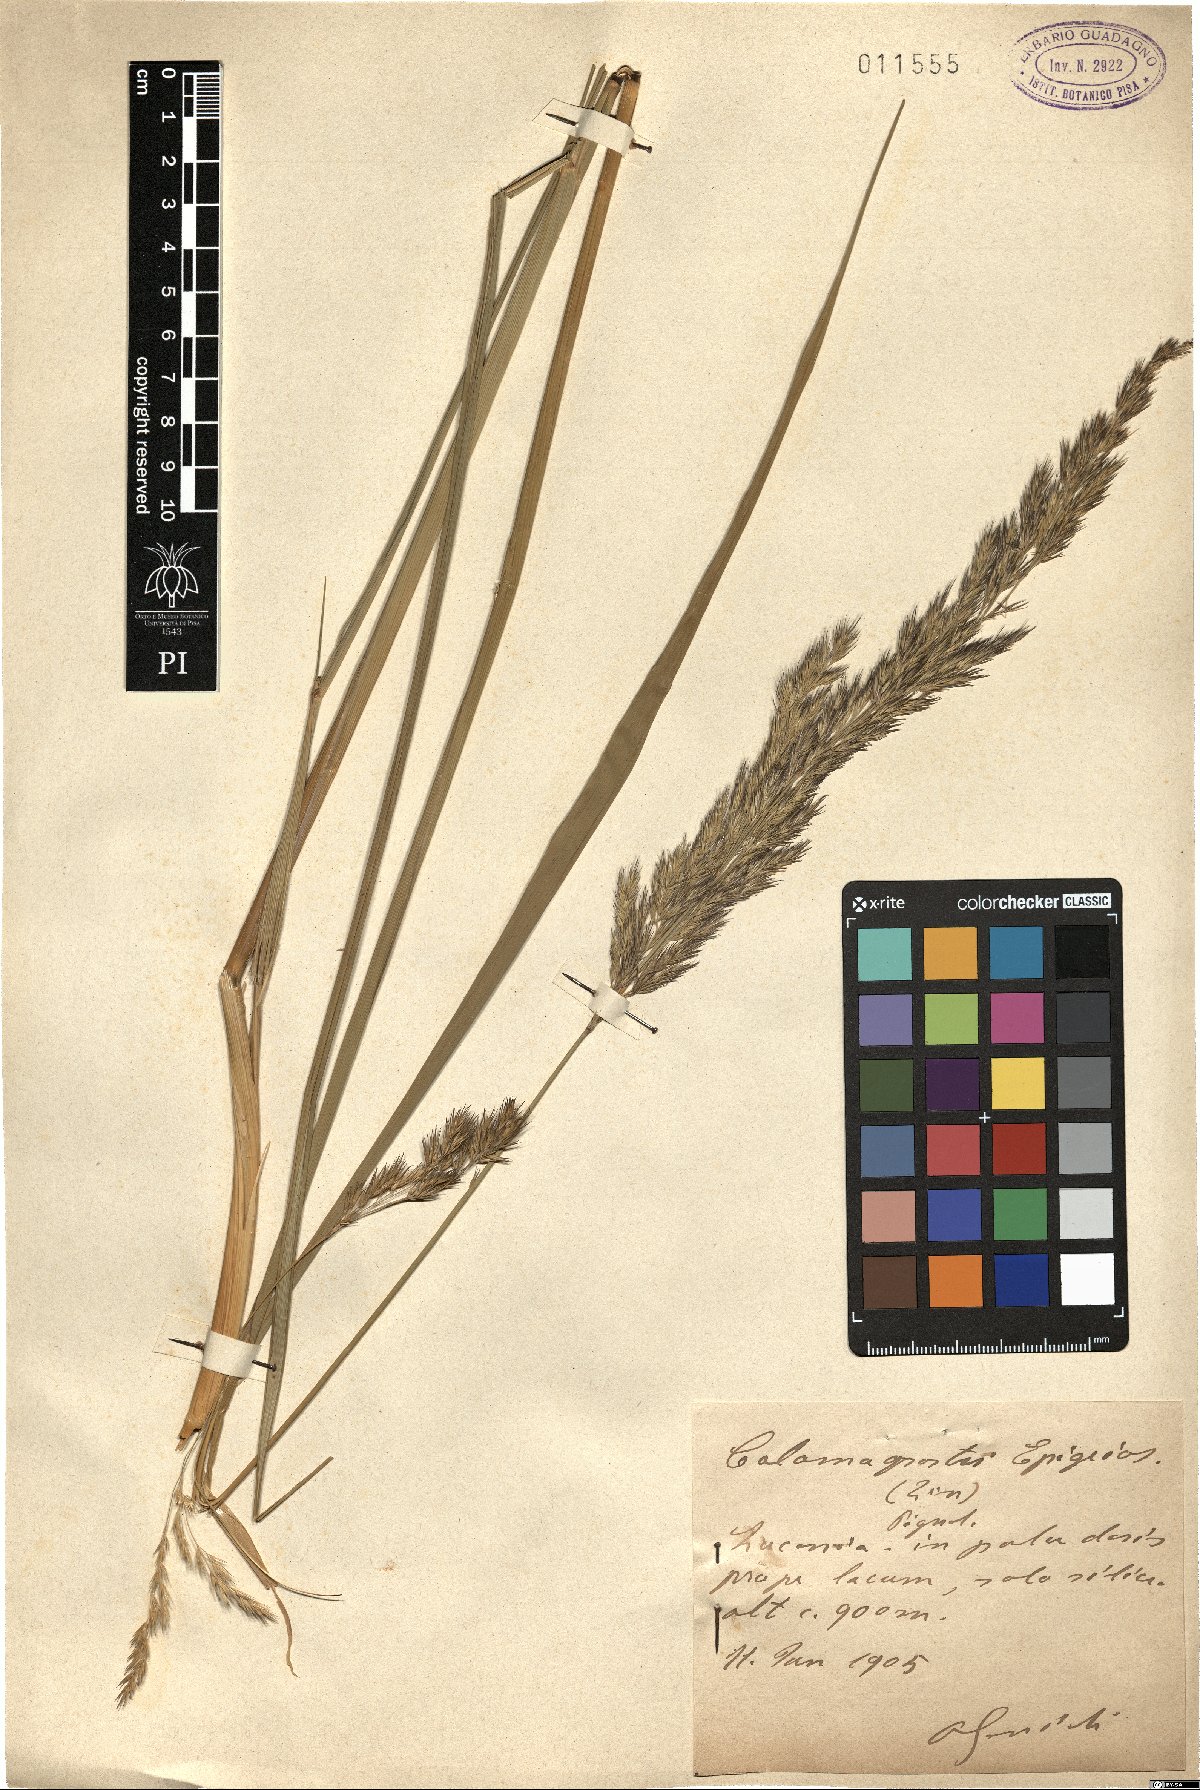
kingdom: Plantae
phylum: Tracheophyta
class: Liliopsida
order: Poales
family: Poaceae
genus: Calamagrostis
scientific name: Calamagrostis epigejos
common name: Wood small-reed
